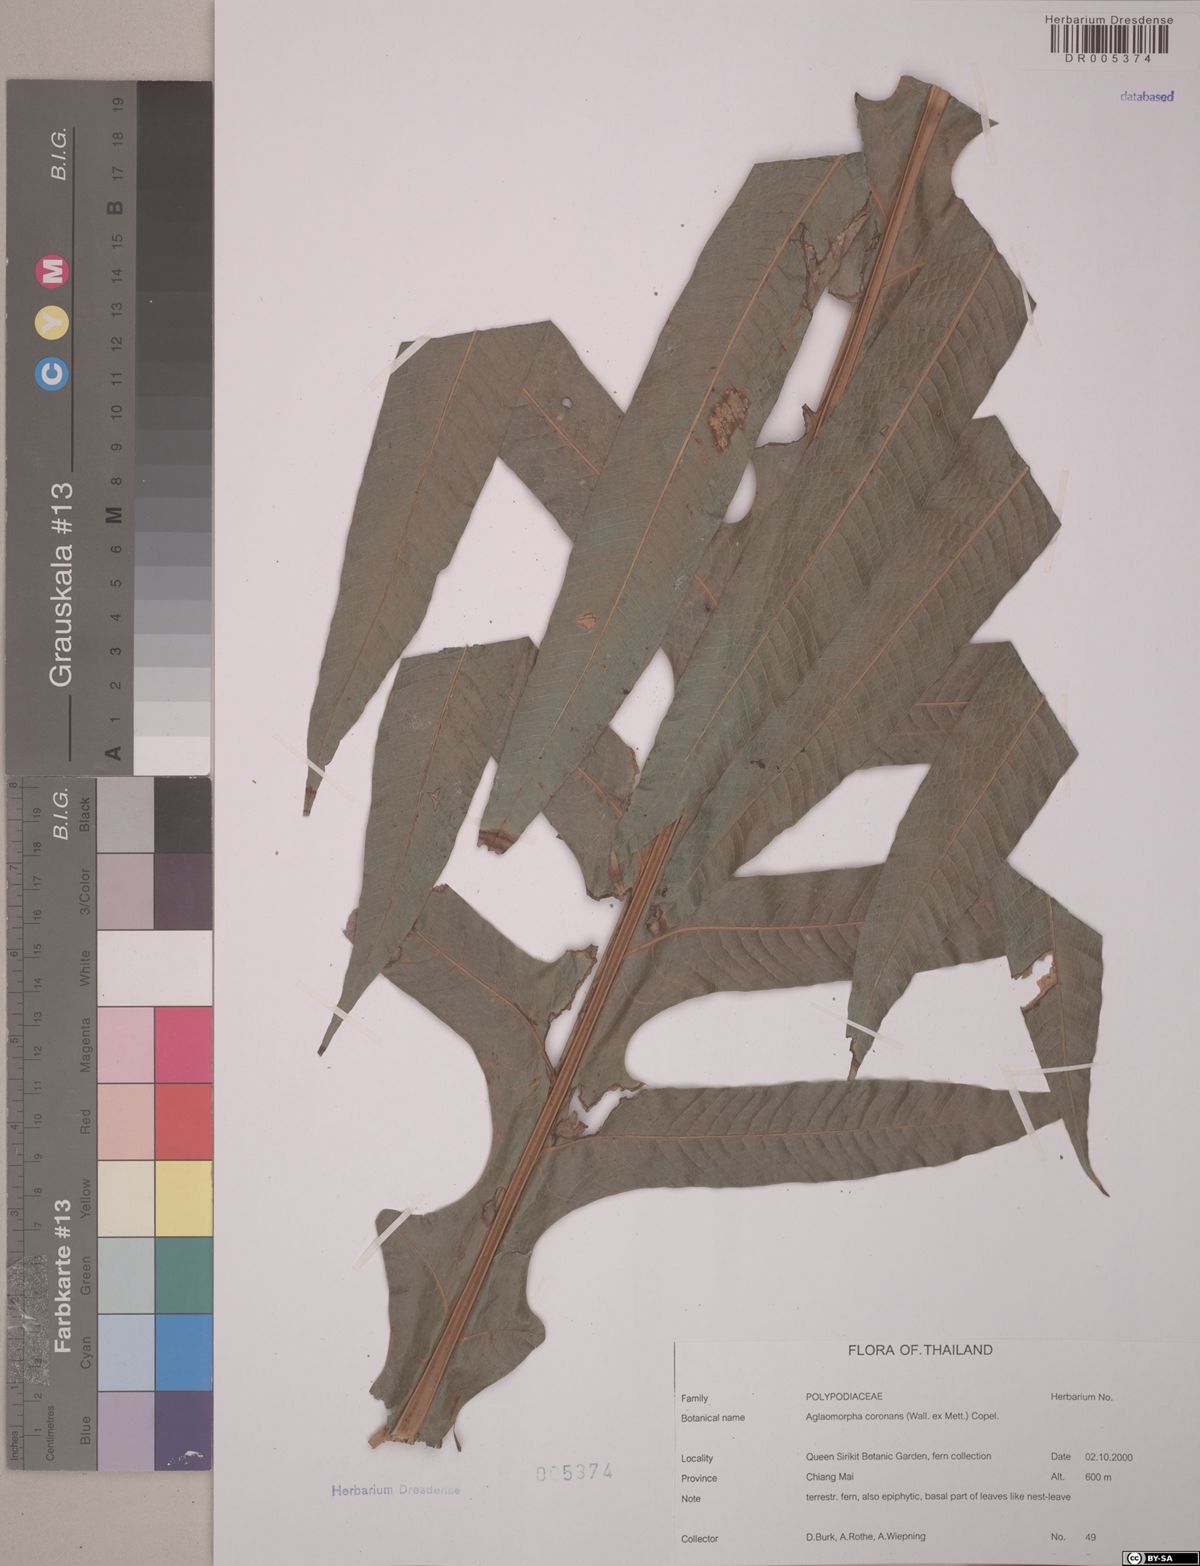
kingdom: Plantae
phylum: Tracheophyta
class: Polypodiopsida
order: Polypodiales
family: Polypodiaceae
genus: Drynaria
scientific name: Drynaria coronans
